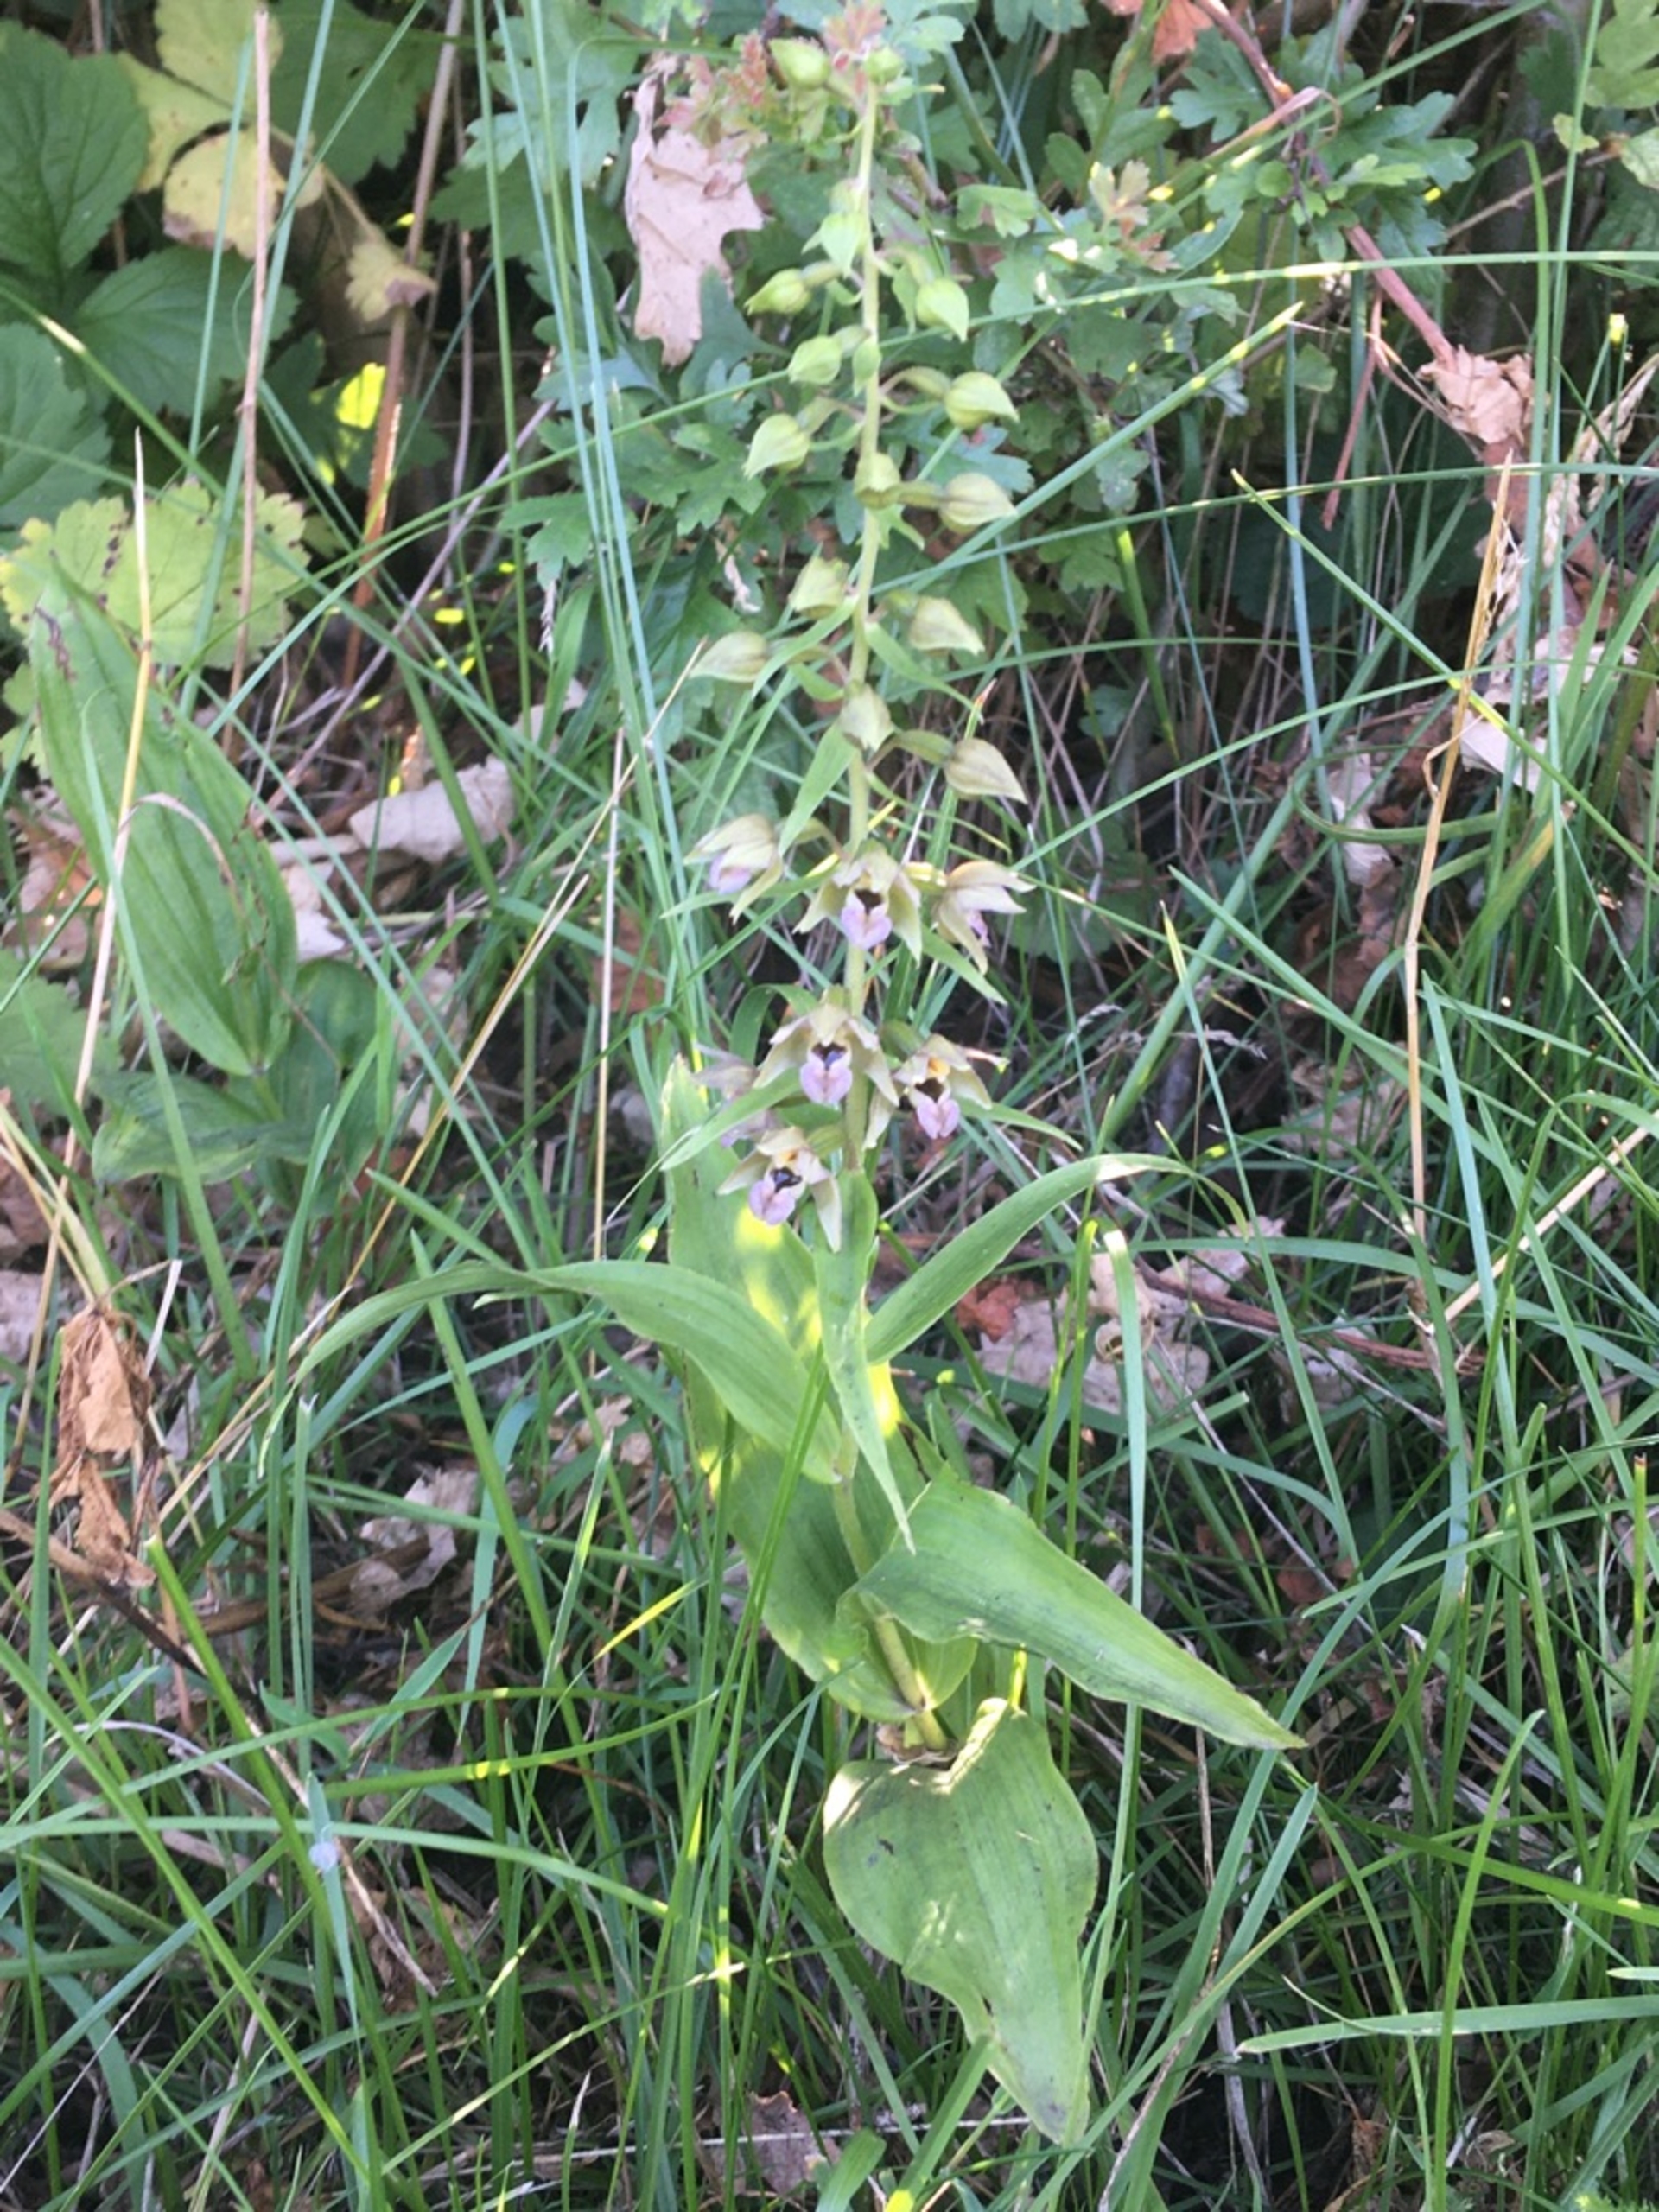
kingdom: Plantae
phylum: Tracheophyta
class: Liliopsida
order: Asparagales
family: Orchidaceae
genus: Epipactis
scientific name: Epipactis helleborine
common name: Skov-hullæbe
